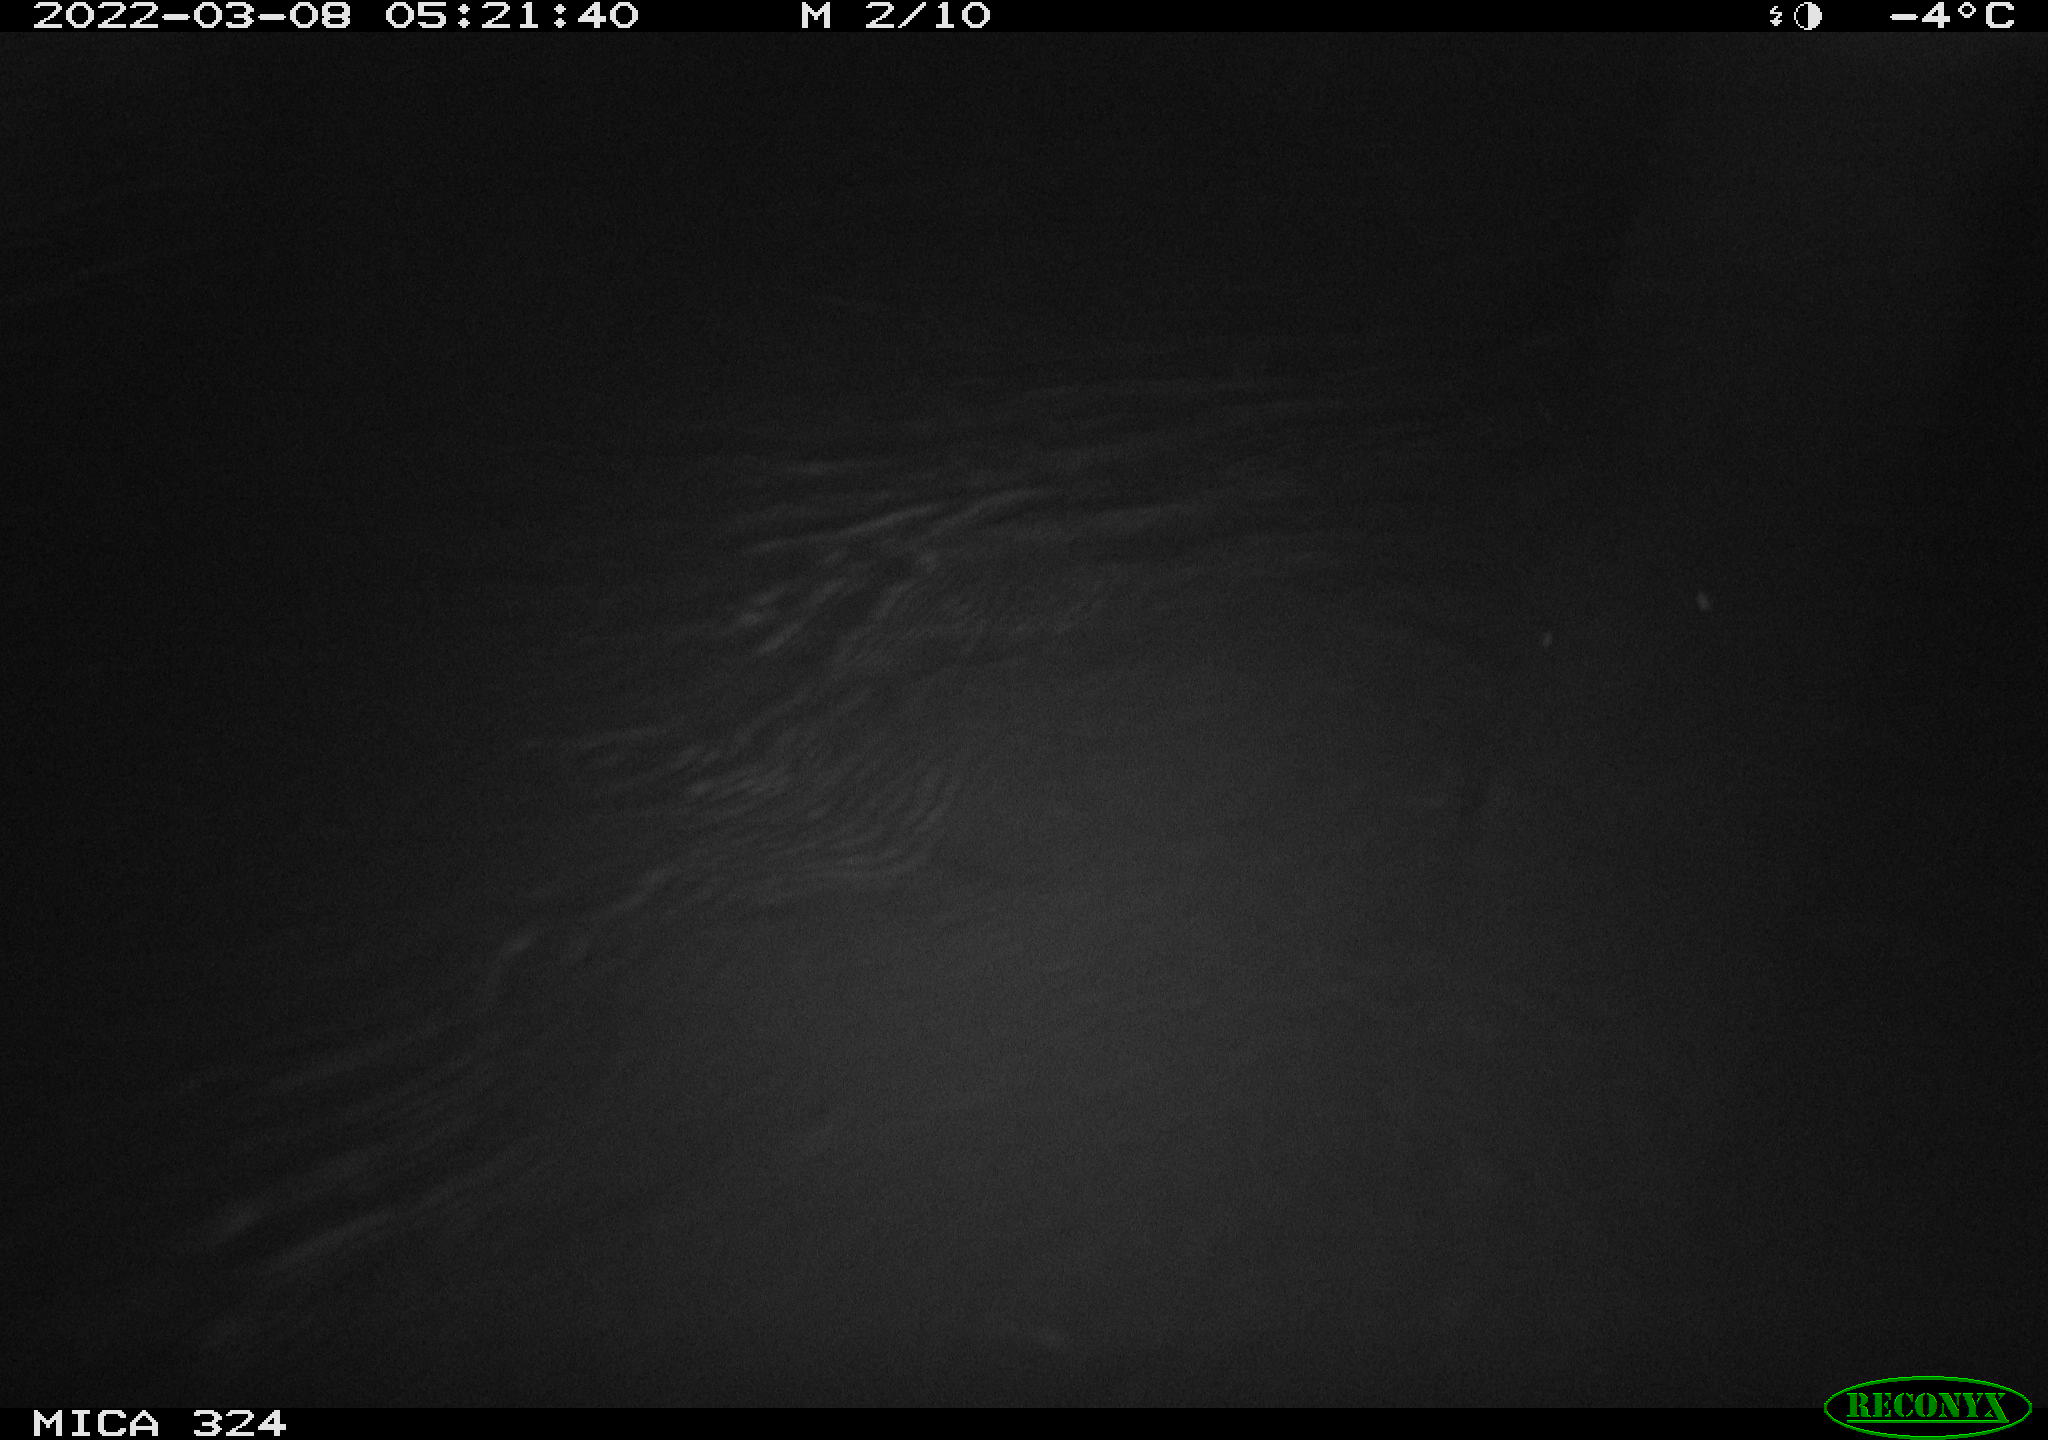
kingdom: Animalia
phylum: Chordata
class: Mammalia
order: Rodentia
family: Cricetidae
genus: Ondatra
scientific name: Ondatra zibethicus
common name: Muskrat
